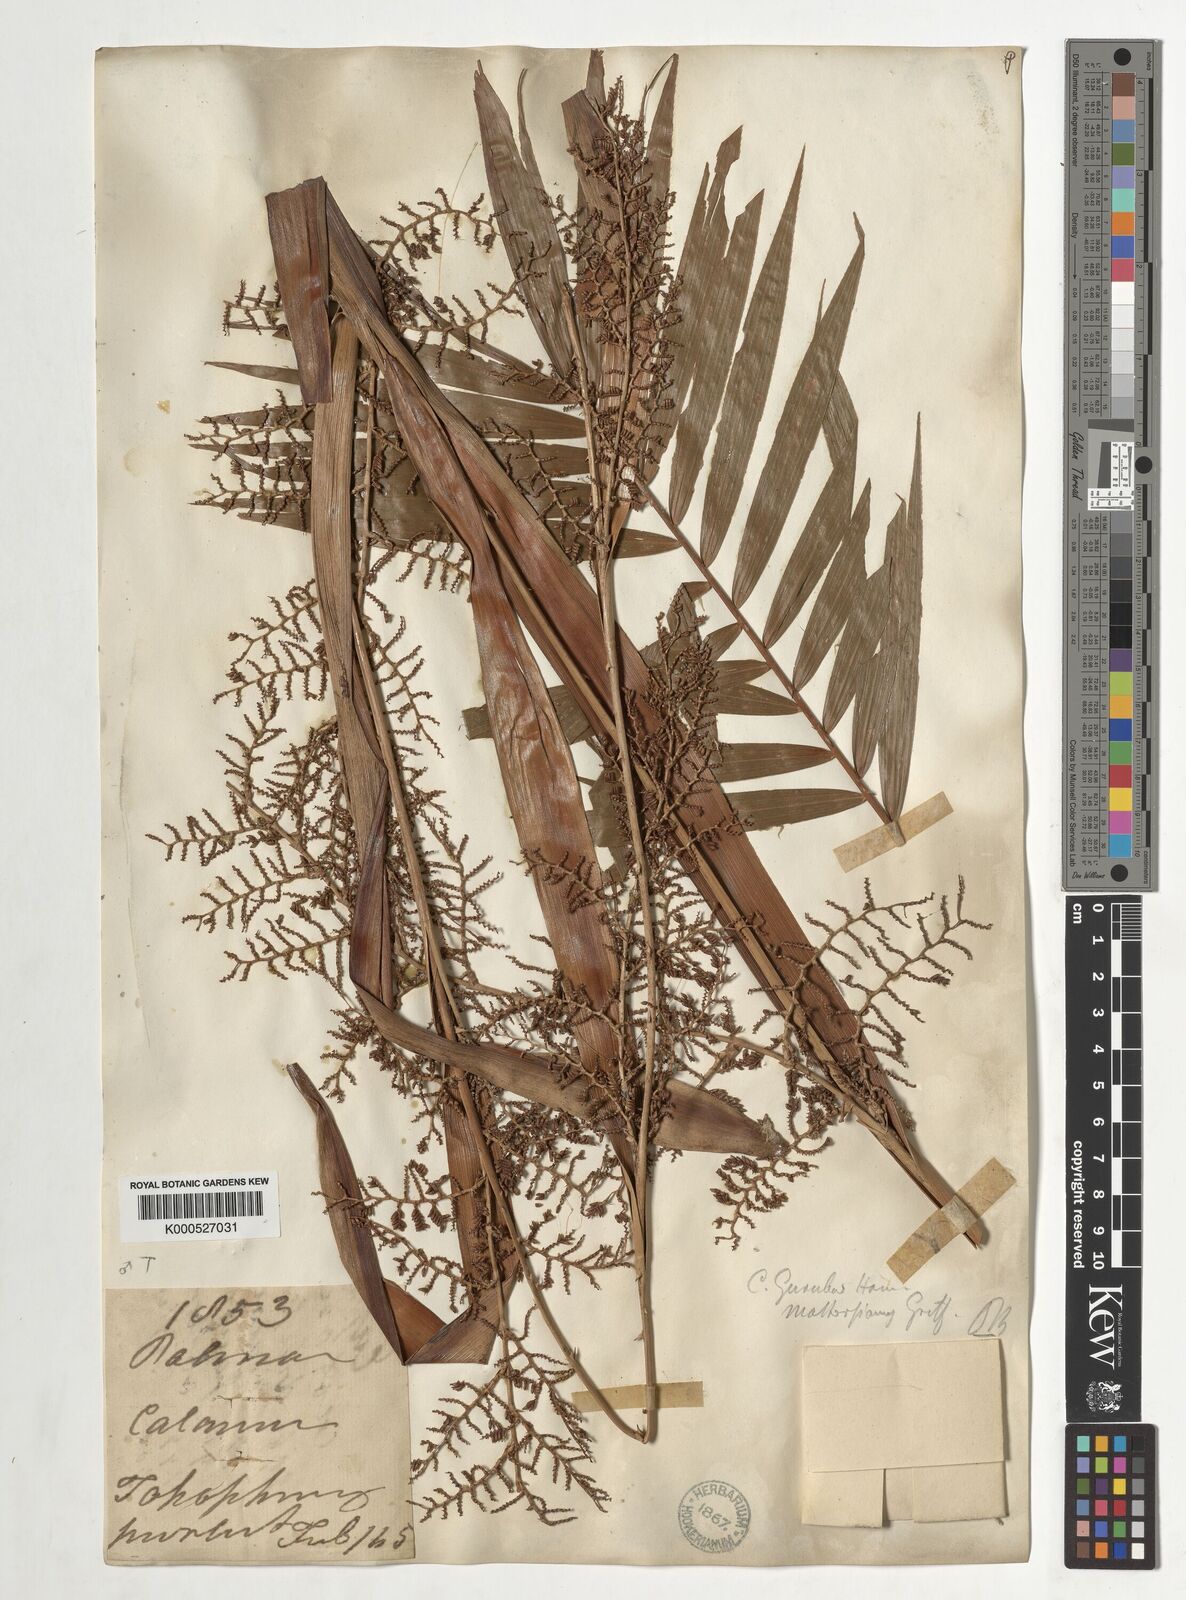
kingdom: Plantae
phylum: Tracheophyta
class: Liliopsida
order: Arecales
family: Arecaceae
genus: Calamus
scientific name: Calamus guruba
